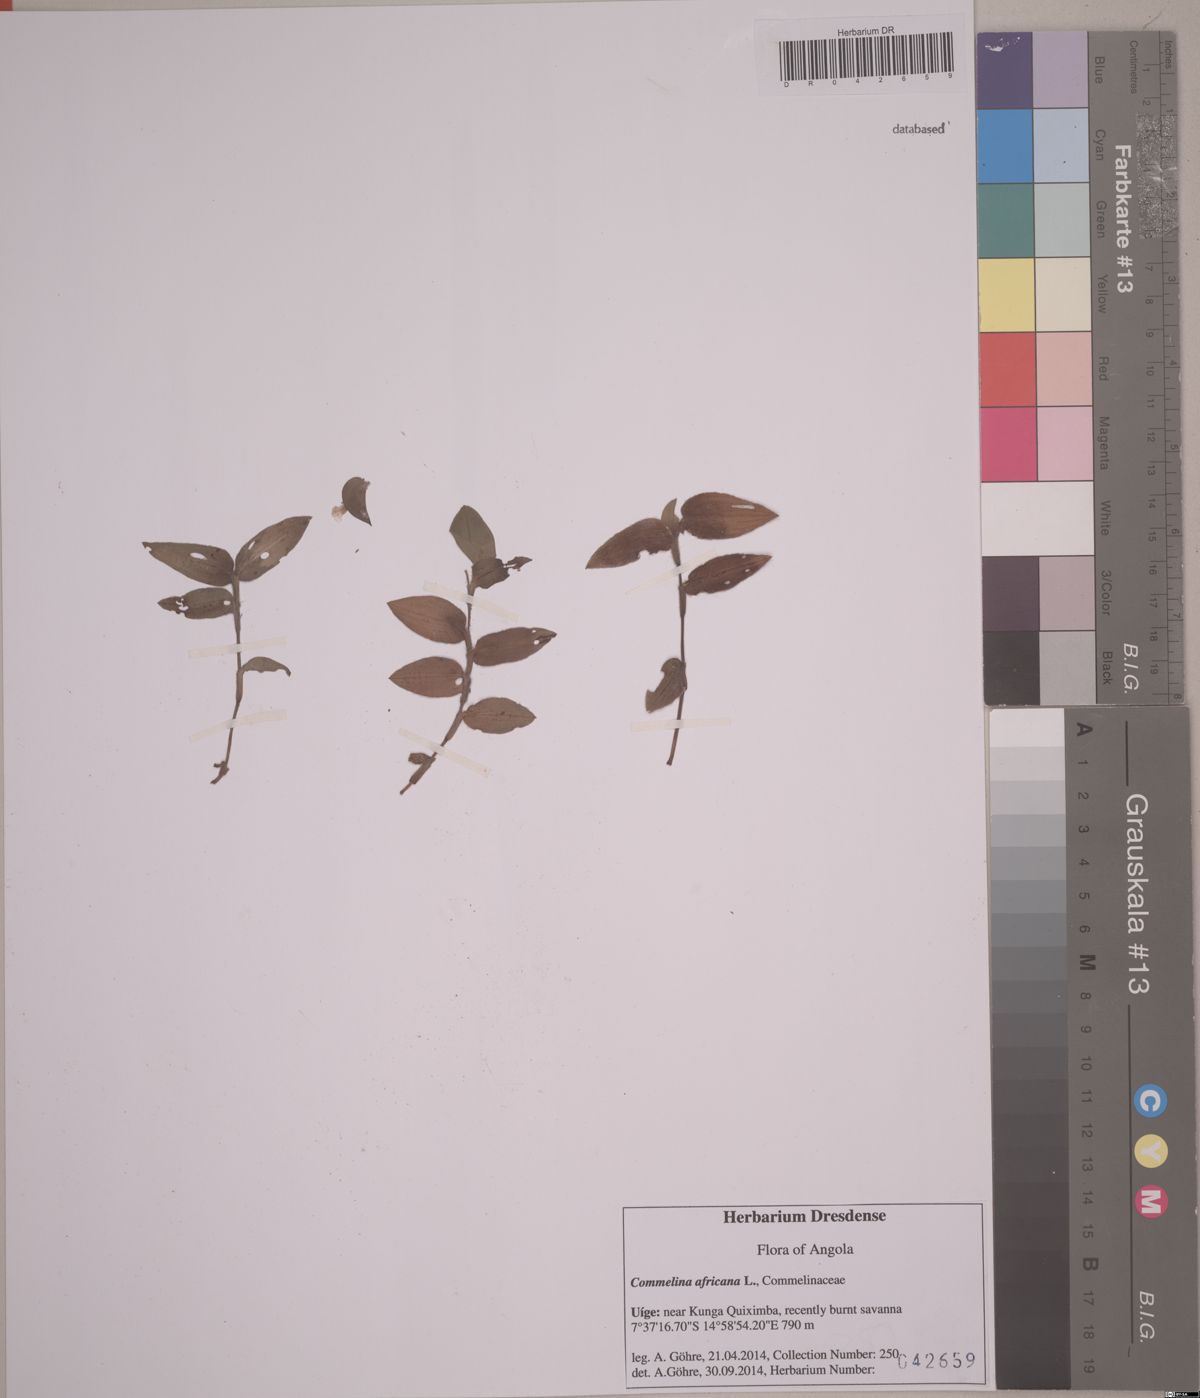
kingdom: Plantae
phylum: Tracheophyta
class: Liliopsida
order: Commelinales
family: Commelinaceae
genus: Commelina
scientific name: Commelina africana
